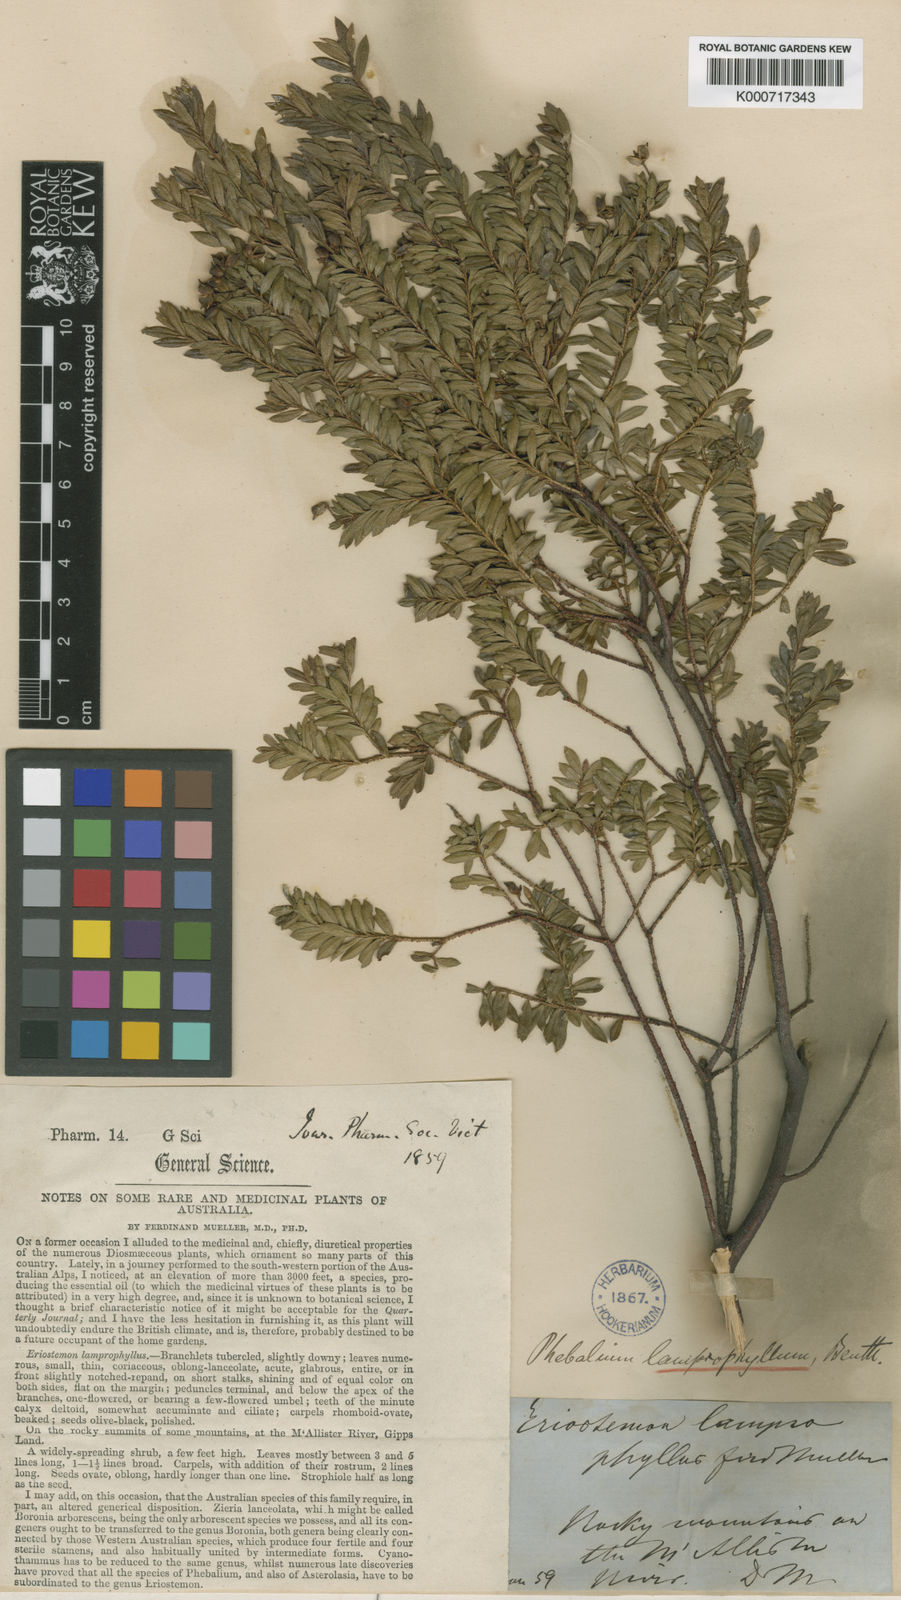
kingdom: Plantae
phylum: Tracheophyta
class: Magnoliopsida
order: Sapindales
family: Rutaceae
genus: Leionema
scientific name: Leionema lamprophyllum
